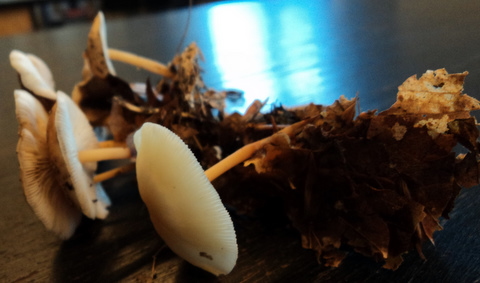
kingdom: Fungi
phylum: Basidiomycota
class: Agaricomycetes
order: Agaricales
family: Omphalotaceae
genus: Gymnopus
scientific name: Gymnopus dryophilus
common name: løv-fladhat
